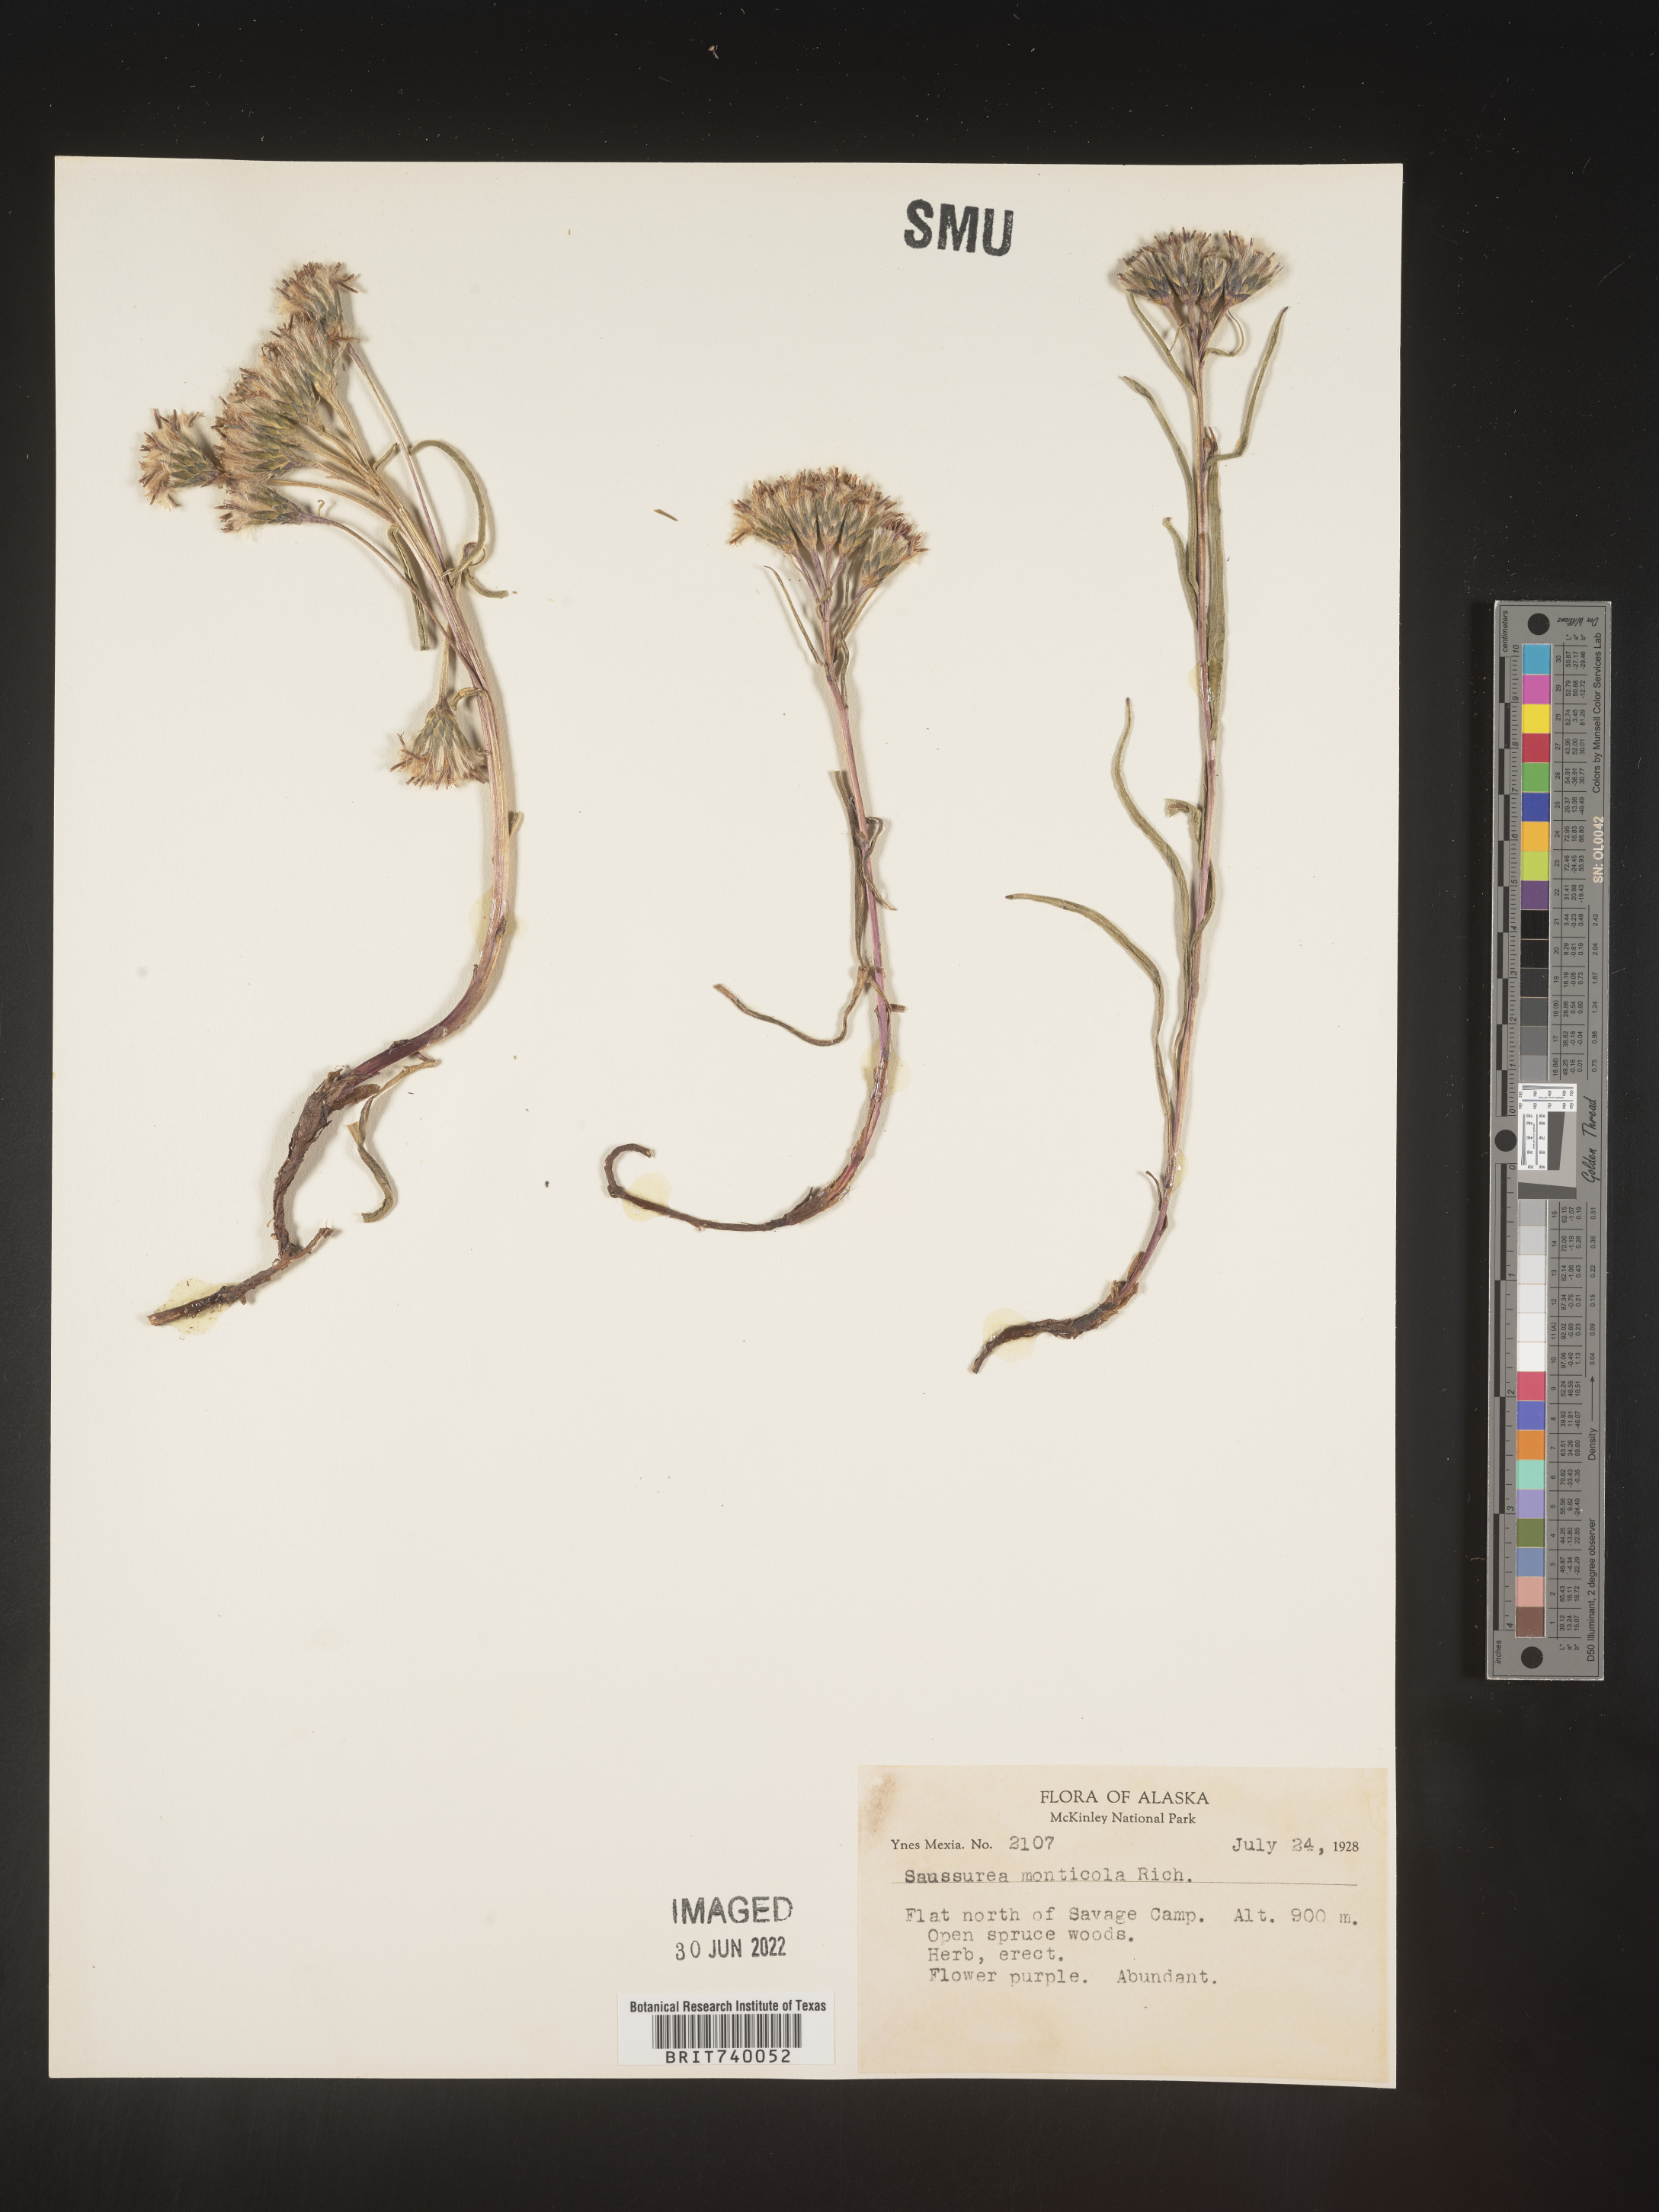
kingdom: Plantae
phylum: Tracheophyta
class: Magnoliopsida
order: Asterales
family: Asteraceae
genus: Saussurea
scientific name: Saussurea
